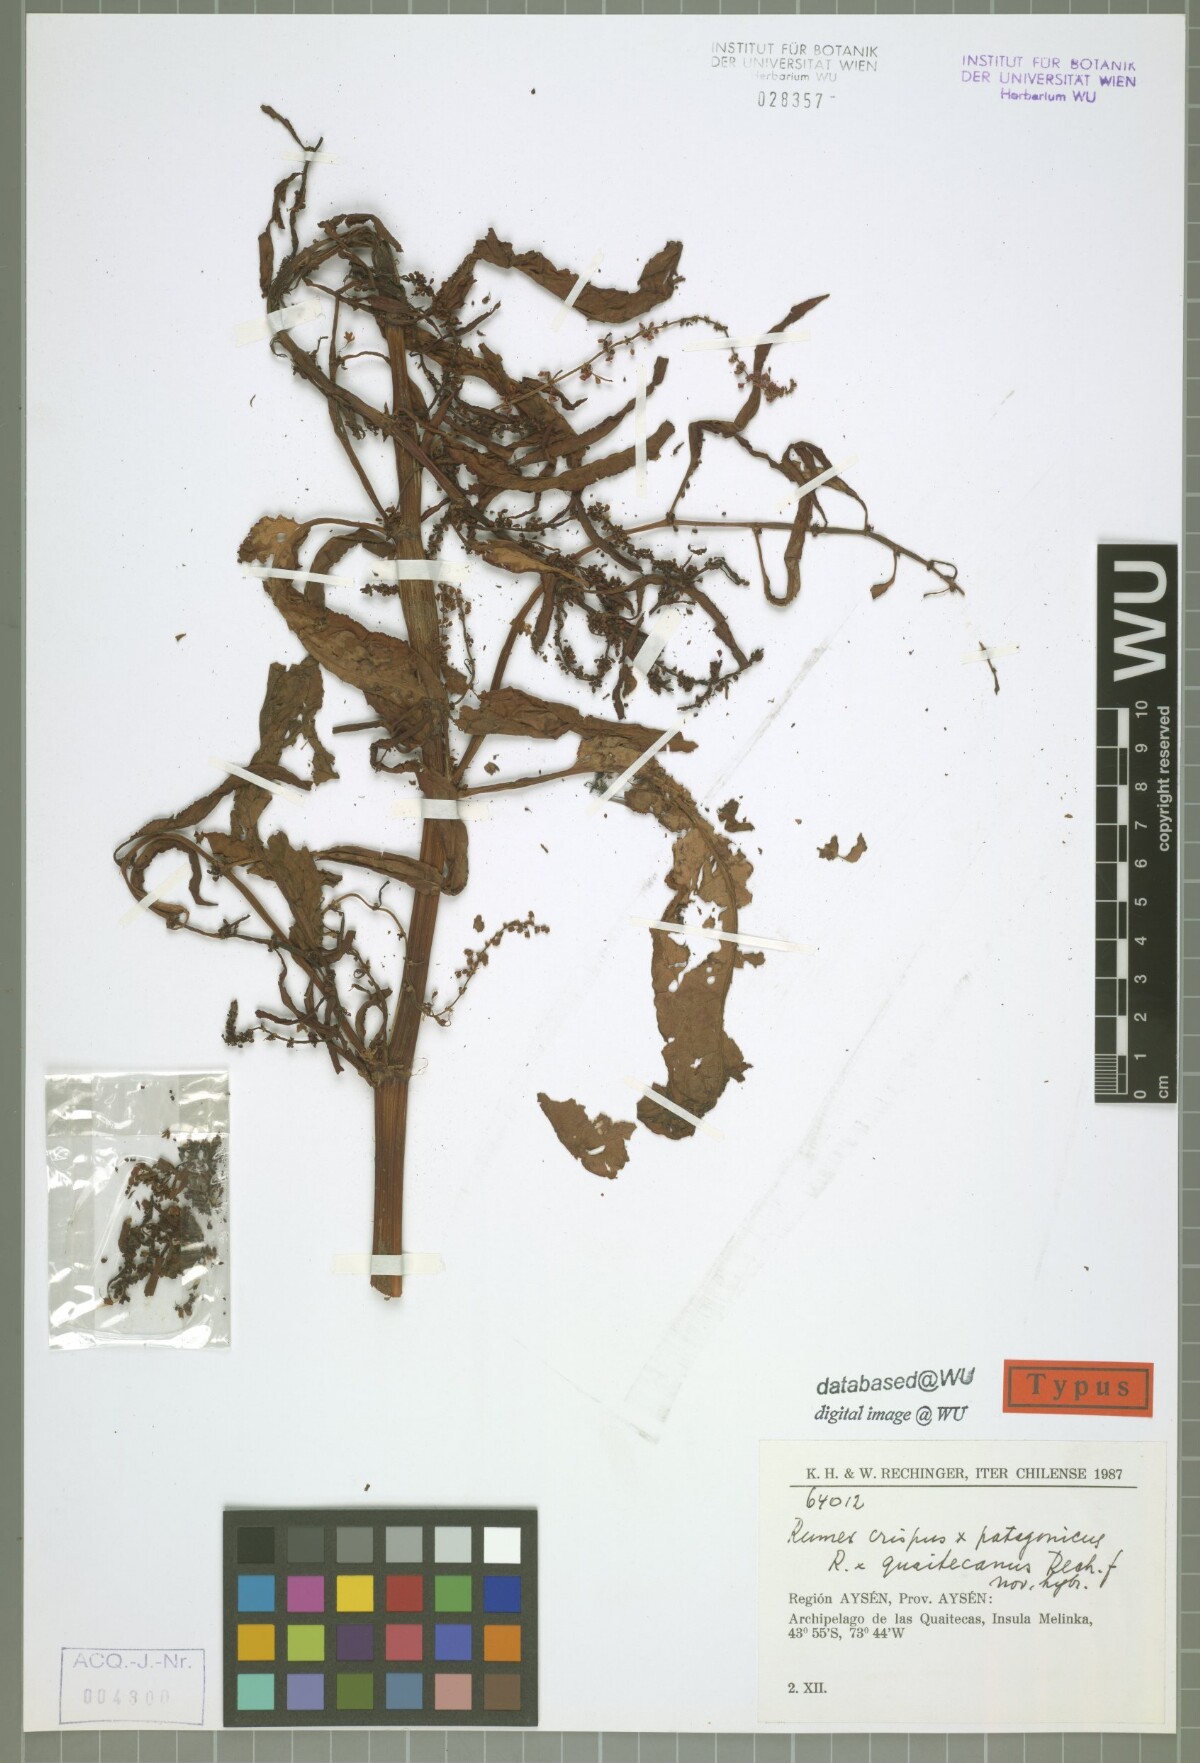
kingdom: Plantae
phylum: Tracheophyta
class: Magnoliopsida
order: Caryophyllales
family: Polygonaceae
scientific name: Polygonaceae
